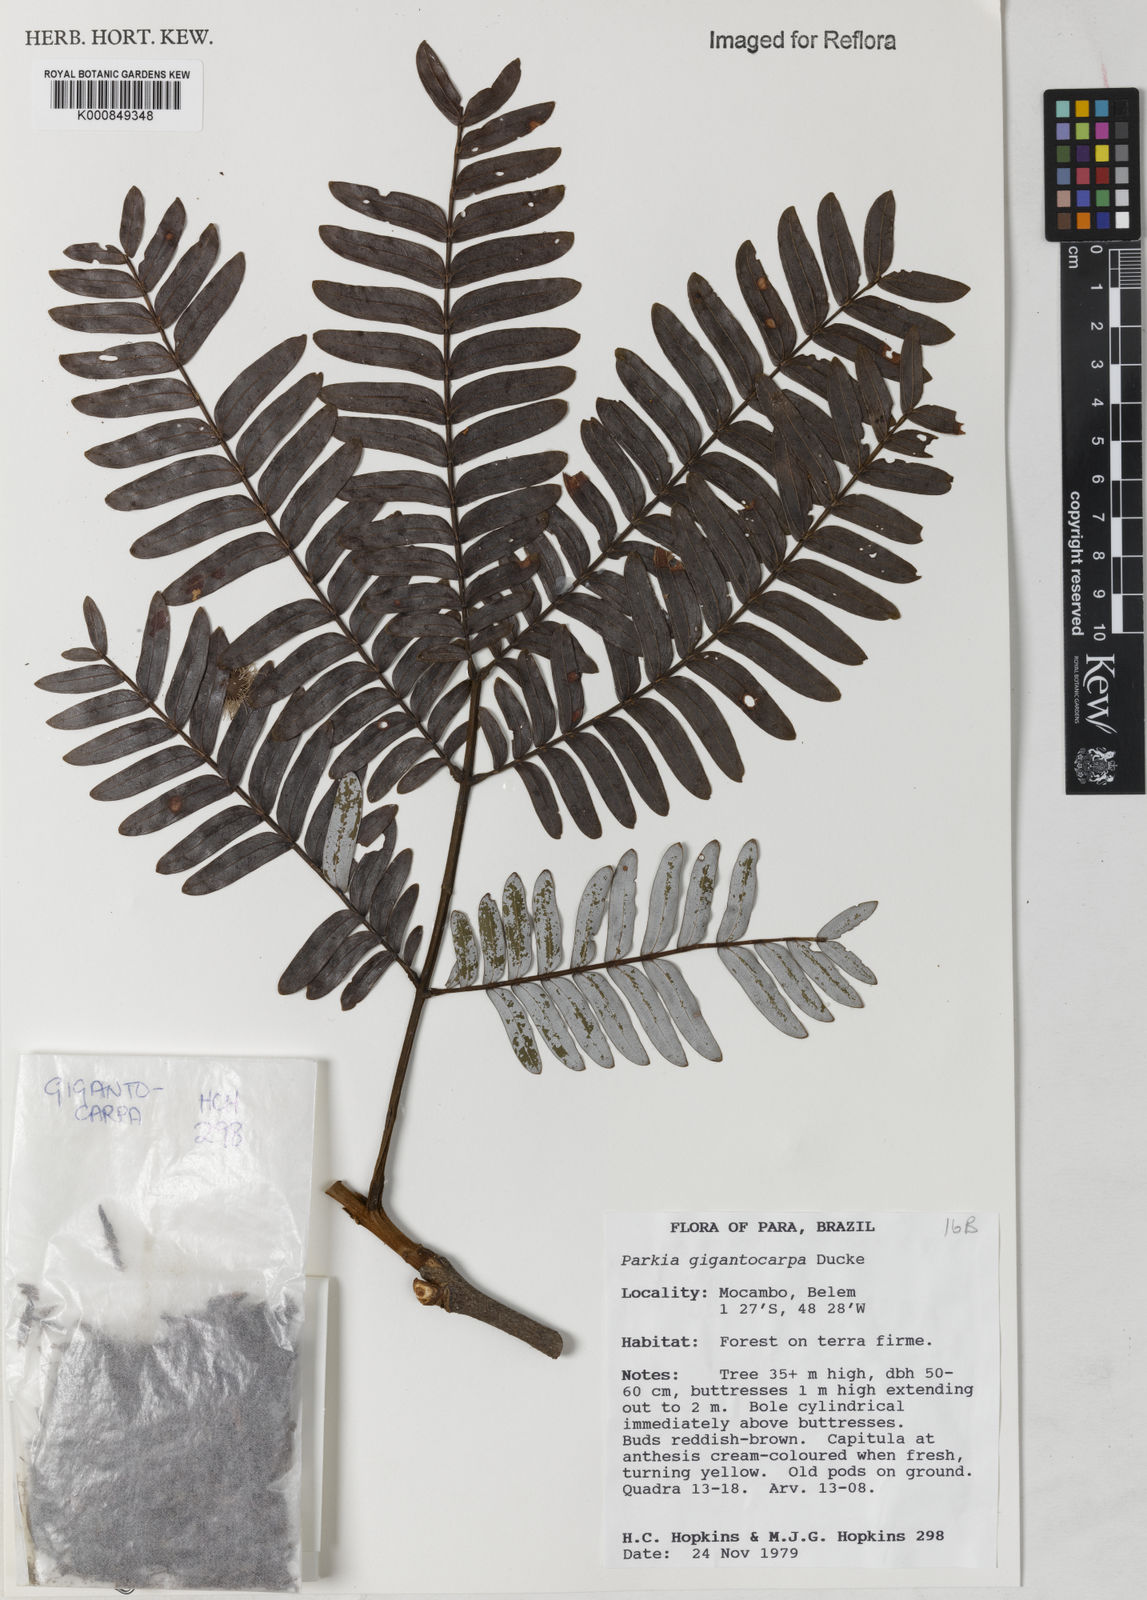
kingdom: Plantae
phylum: Tracheophyta
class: Magnoliopsida
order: Fabales
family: Fabaceae
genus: Parkia
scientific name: Parkia gigantocarpa
